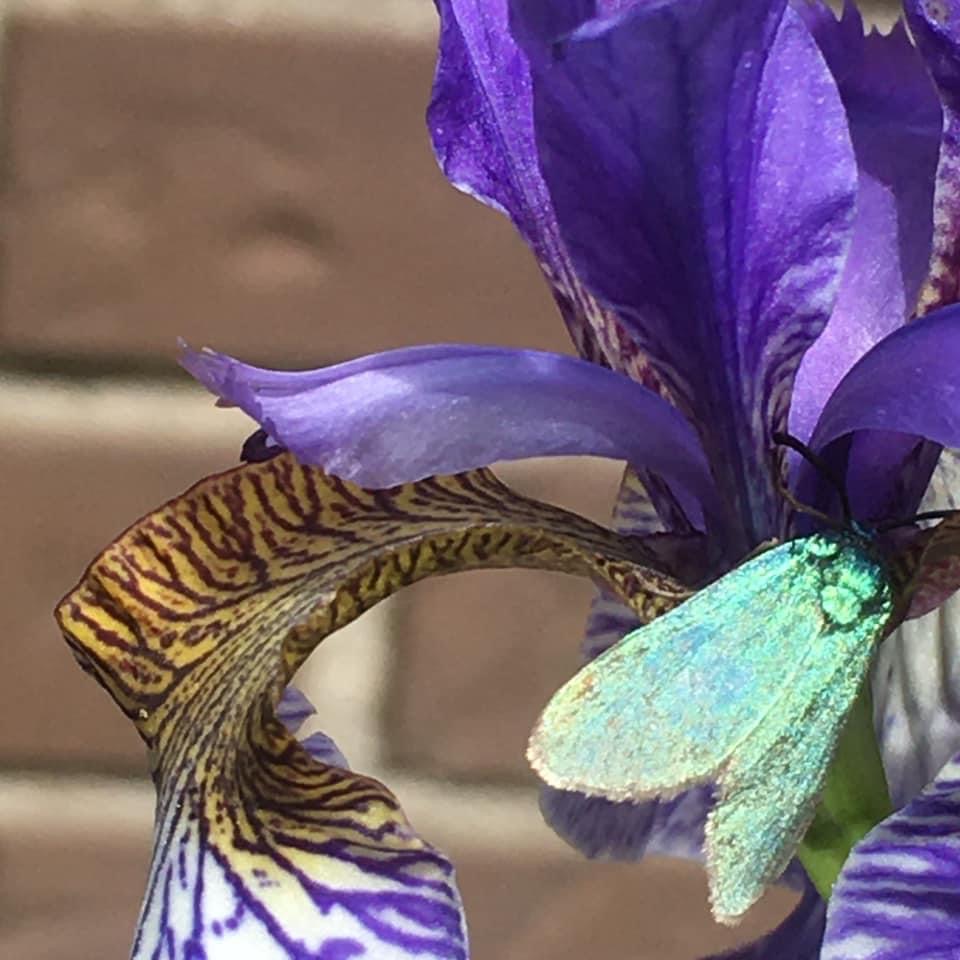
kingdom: Animalia
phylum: Arthropoda
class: Insecta
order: Lepidoptera
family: Zygaenidae
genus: Adscita
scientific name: Adscita statices
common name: Metalvinge
